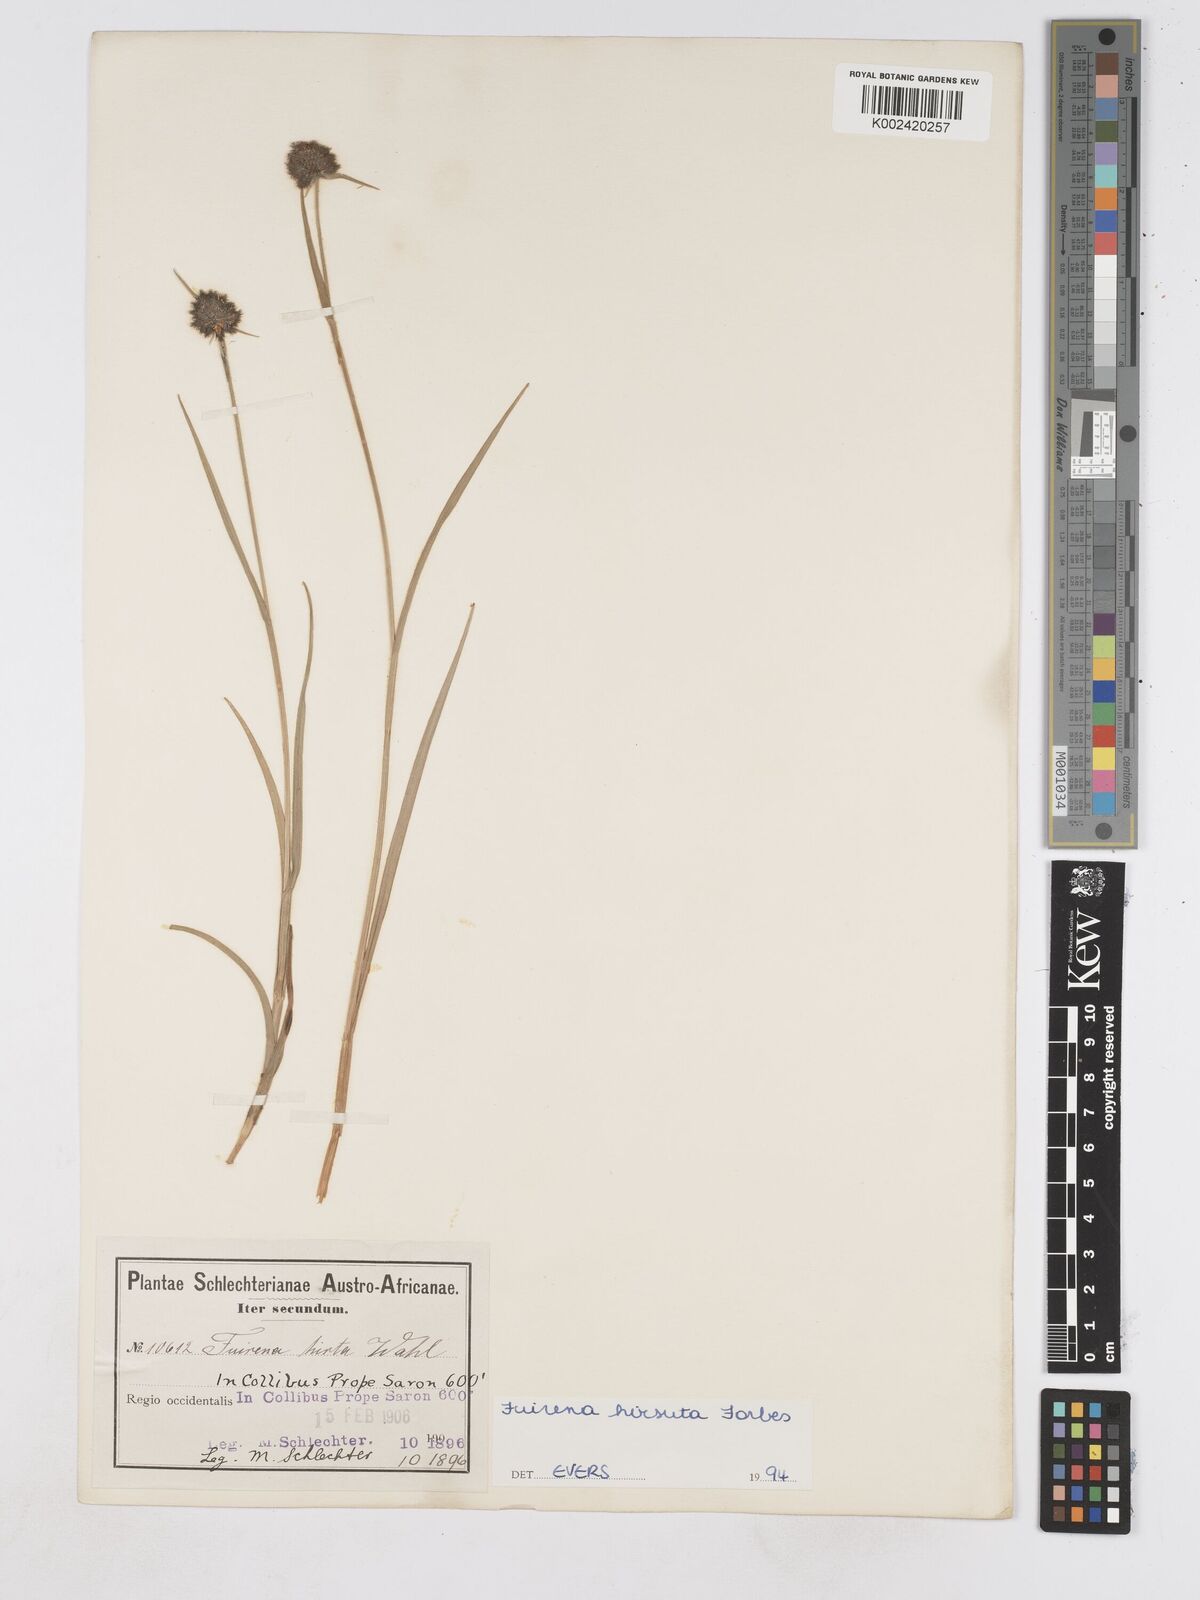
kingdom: Plantae
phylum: Tracheophyta
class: Liliopsida
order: Poales
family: Cyperaceae
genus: Fuirena
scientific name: Fuirena hirsuta
